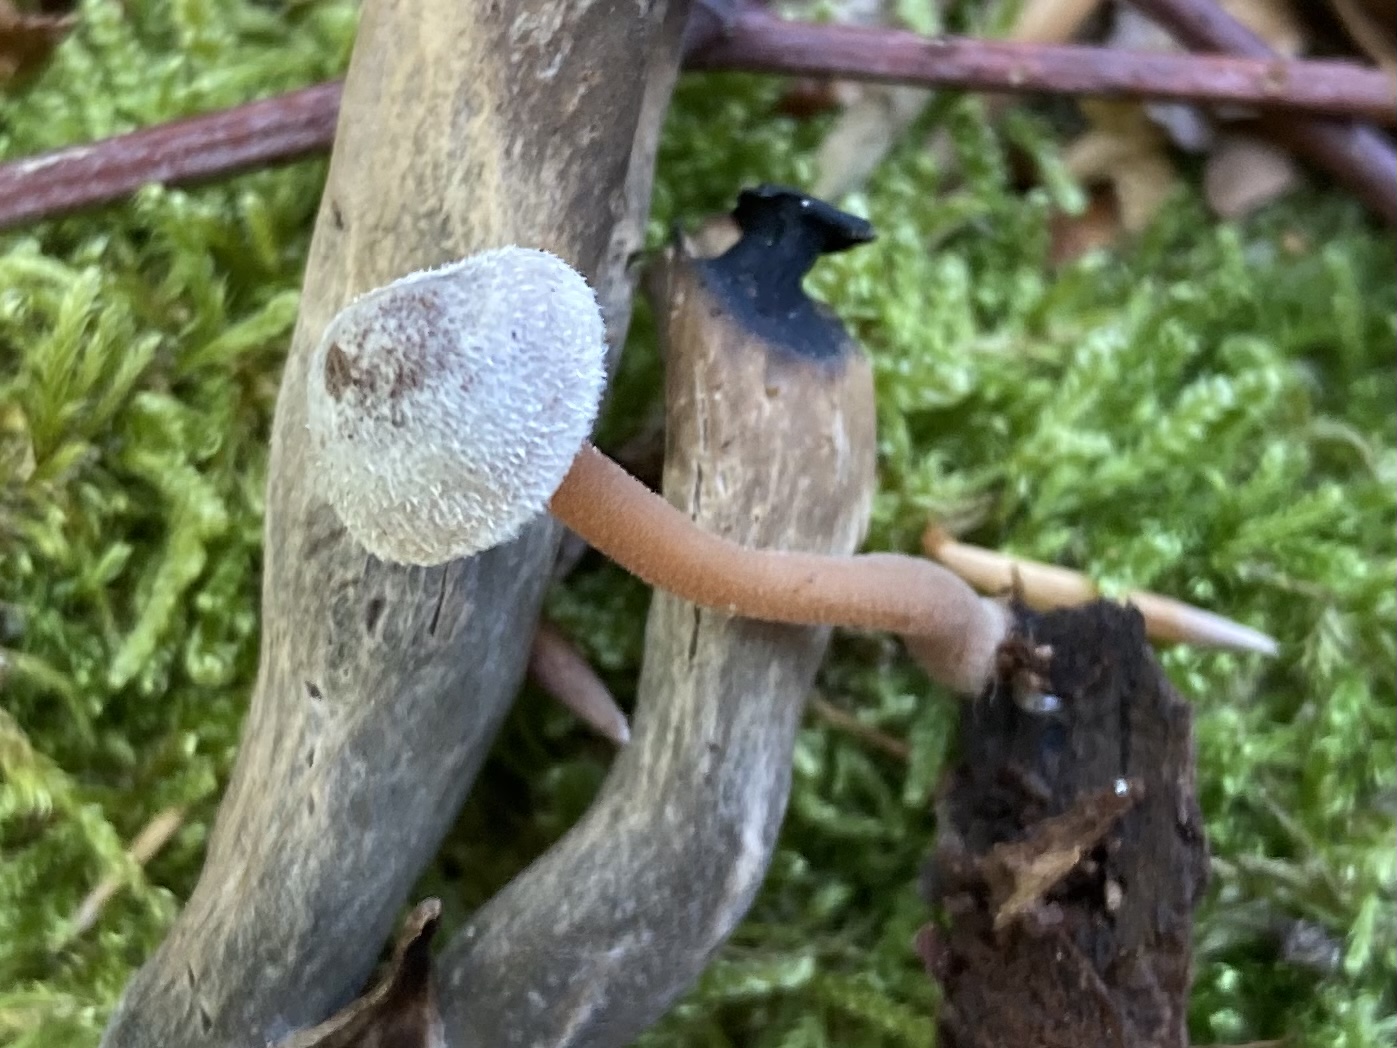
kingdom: Fungi
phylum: Basidiomycota
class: Agaricomycetes
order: Agaricales
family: Inocybaceae
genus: Inocybe
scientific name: Inocybe petiginosa
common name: liden trævlhat
